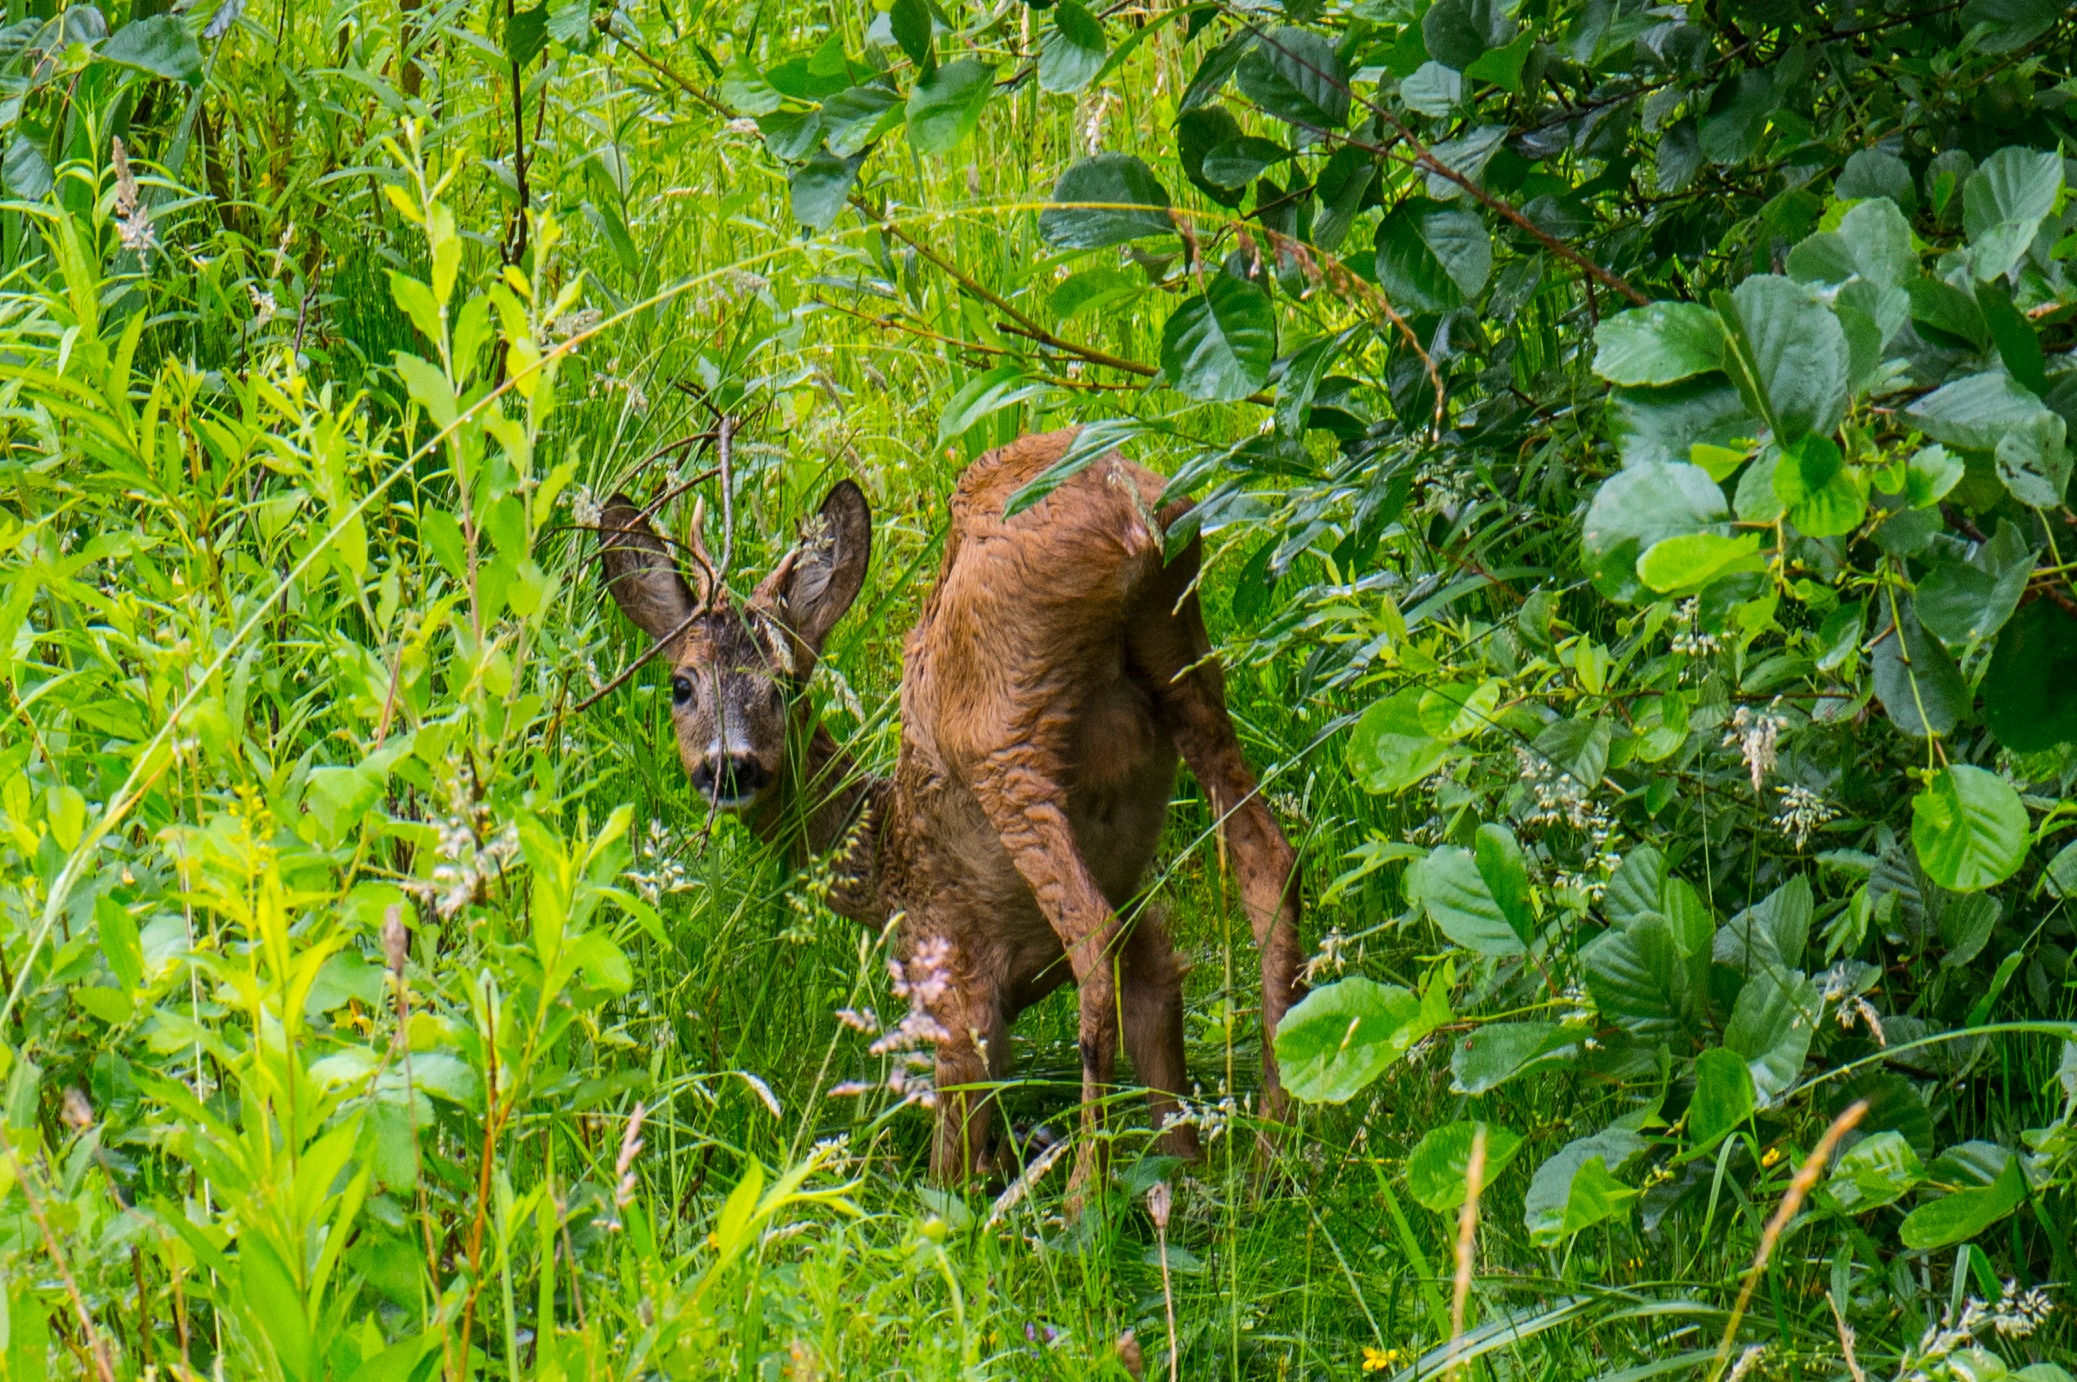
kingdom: Animalia
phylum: Chordata
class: Mammalia
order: Artiodactyla
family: Cervidae
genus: Capreolus
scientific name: Capreolus capreolus
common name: Rådyr
